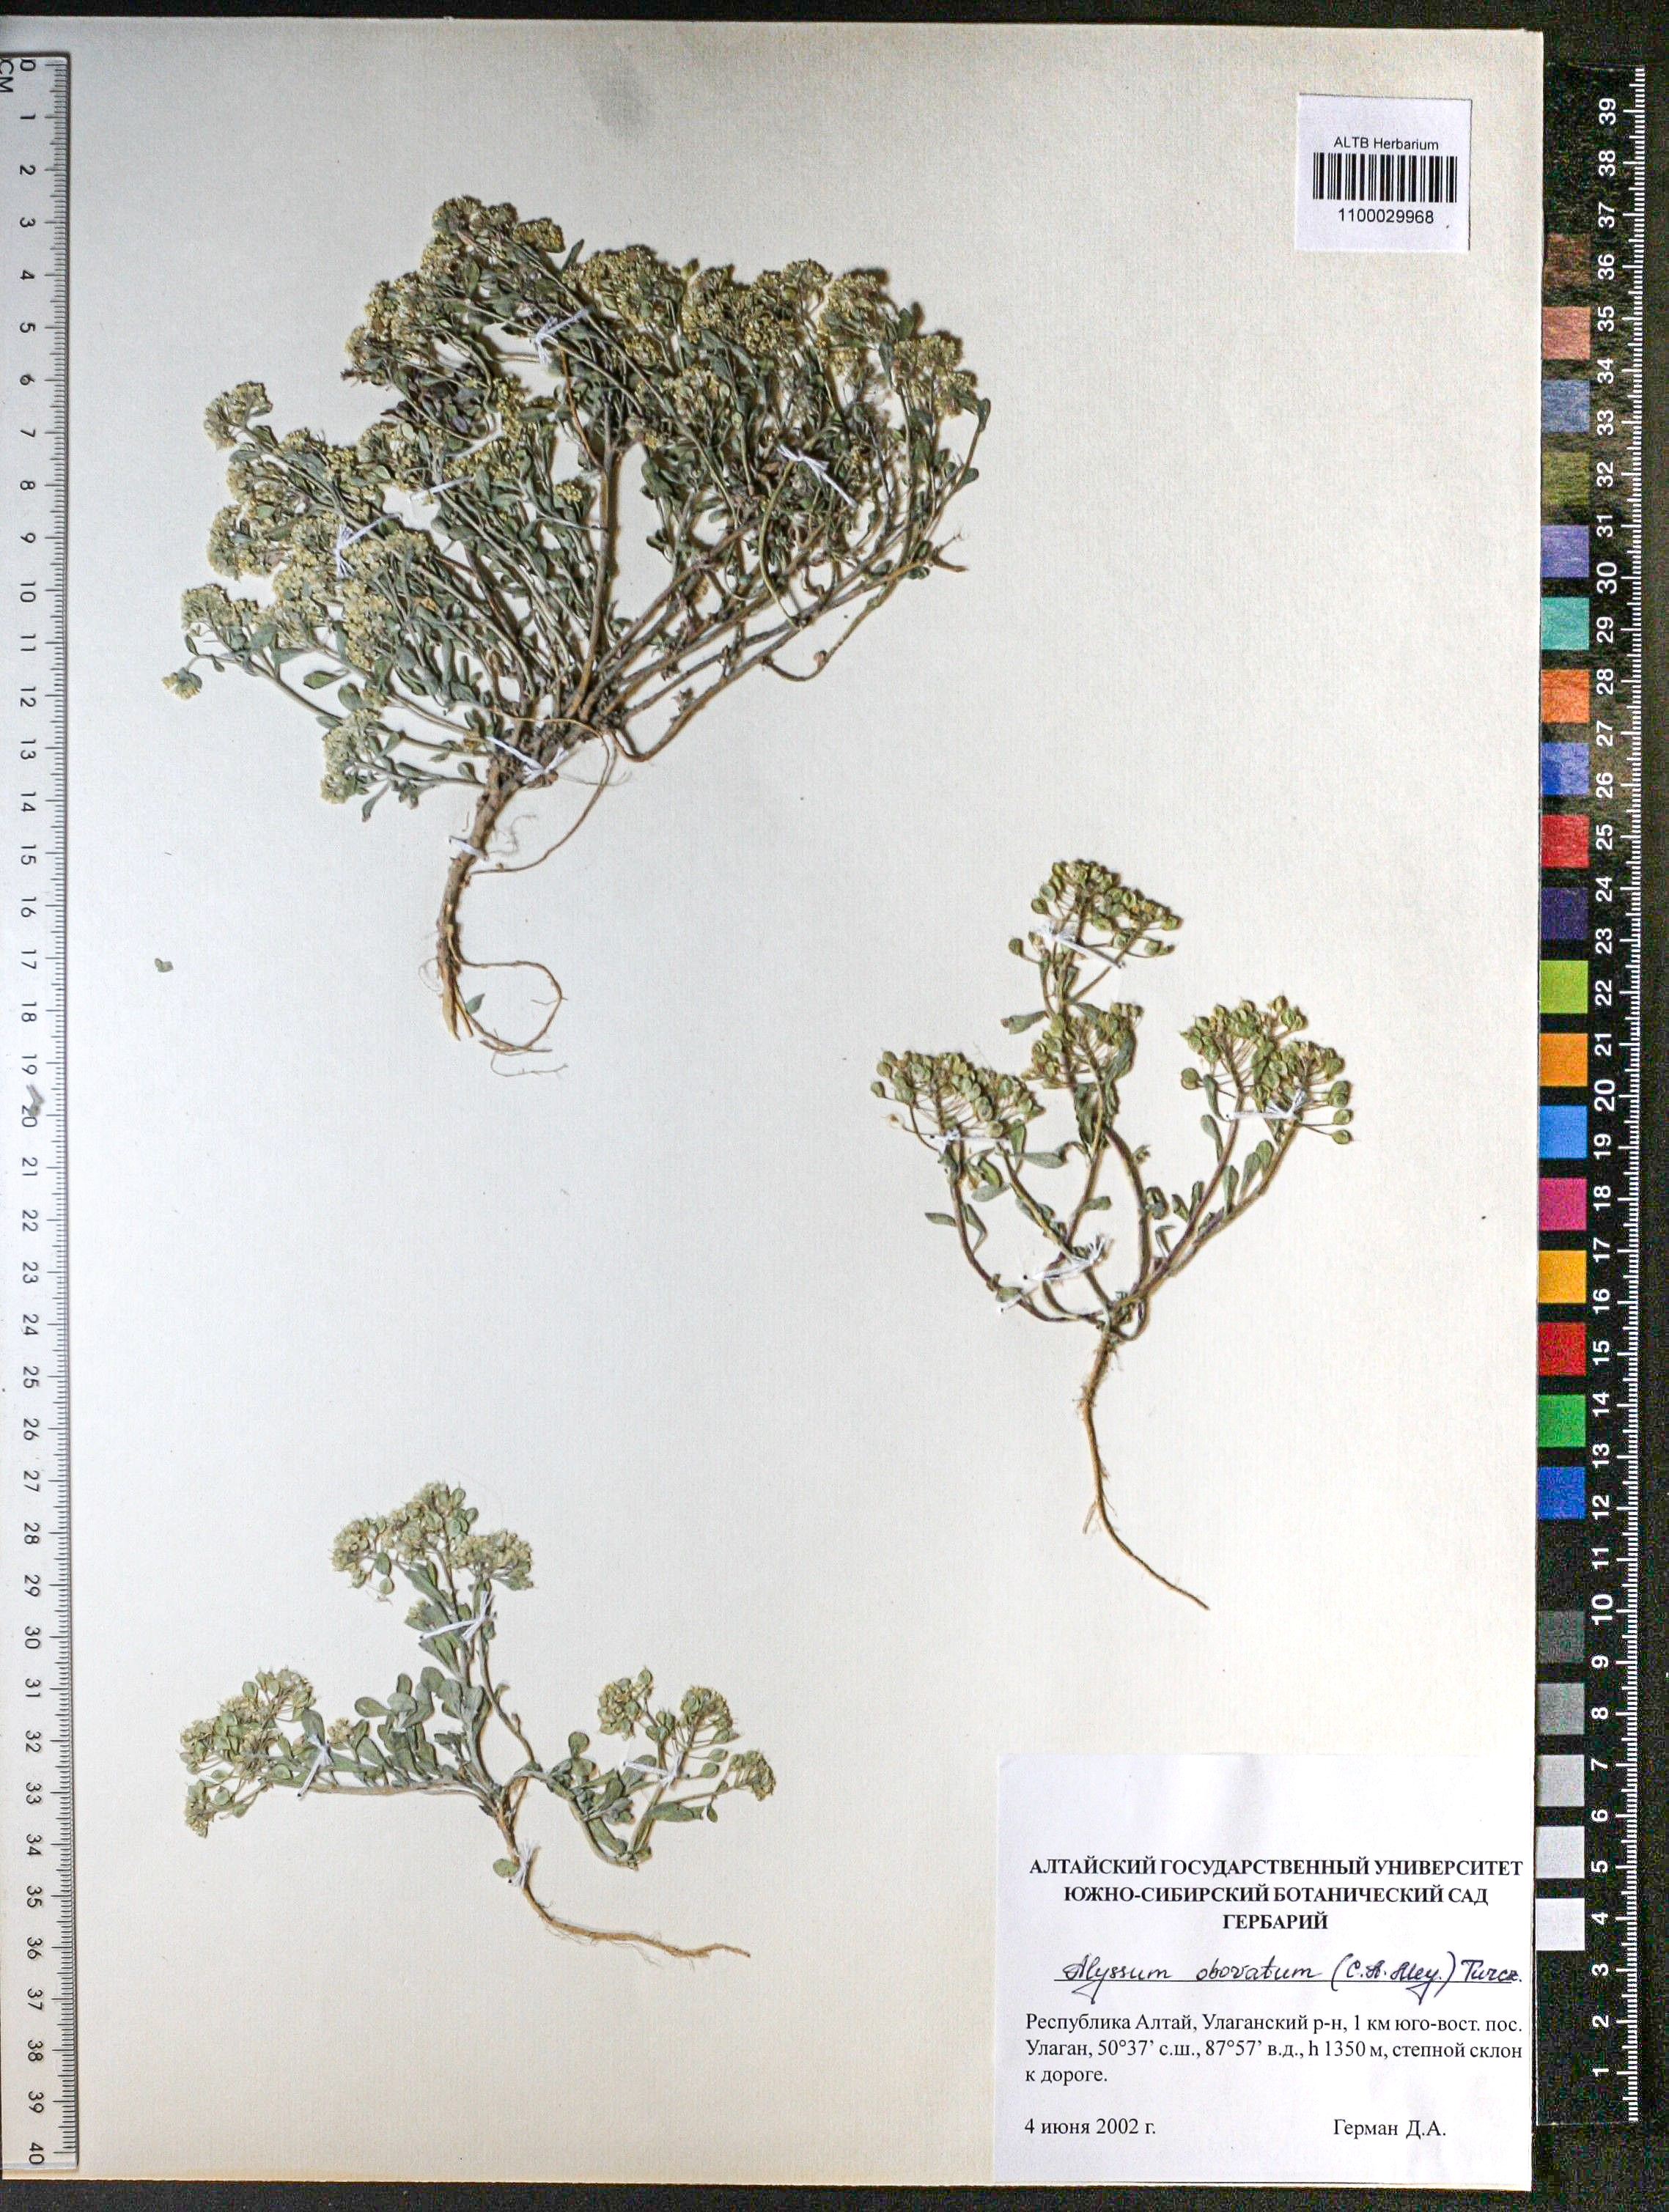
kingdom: Plantae
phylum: Tracheophyta
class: Magnoliopsida
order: Brassicales
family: Brassicaceae
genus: Odontarrhena
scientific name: Odontarrhena obovata
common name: American alyssum
